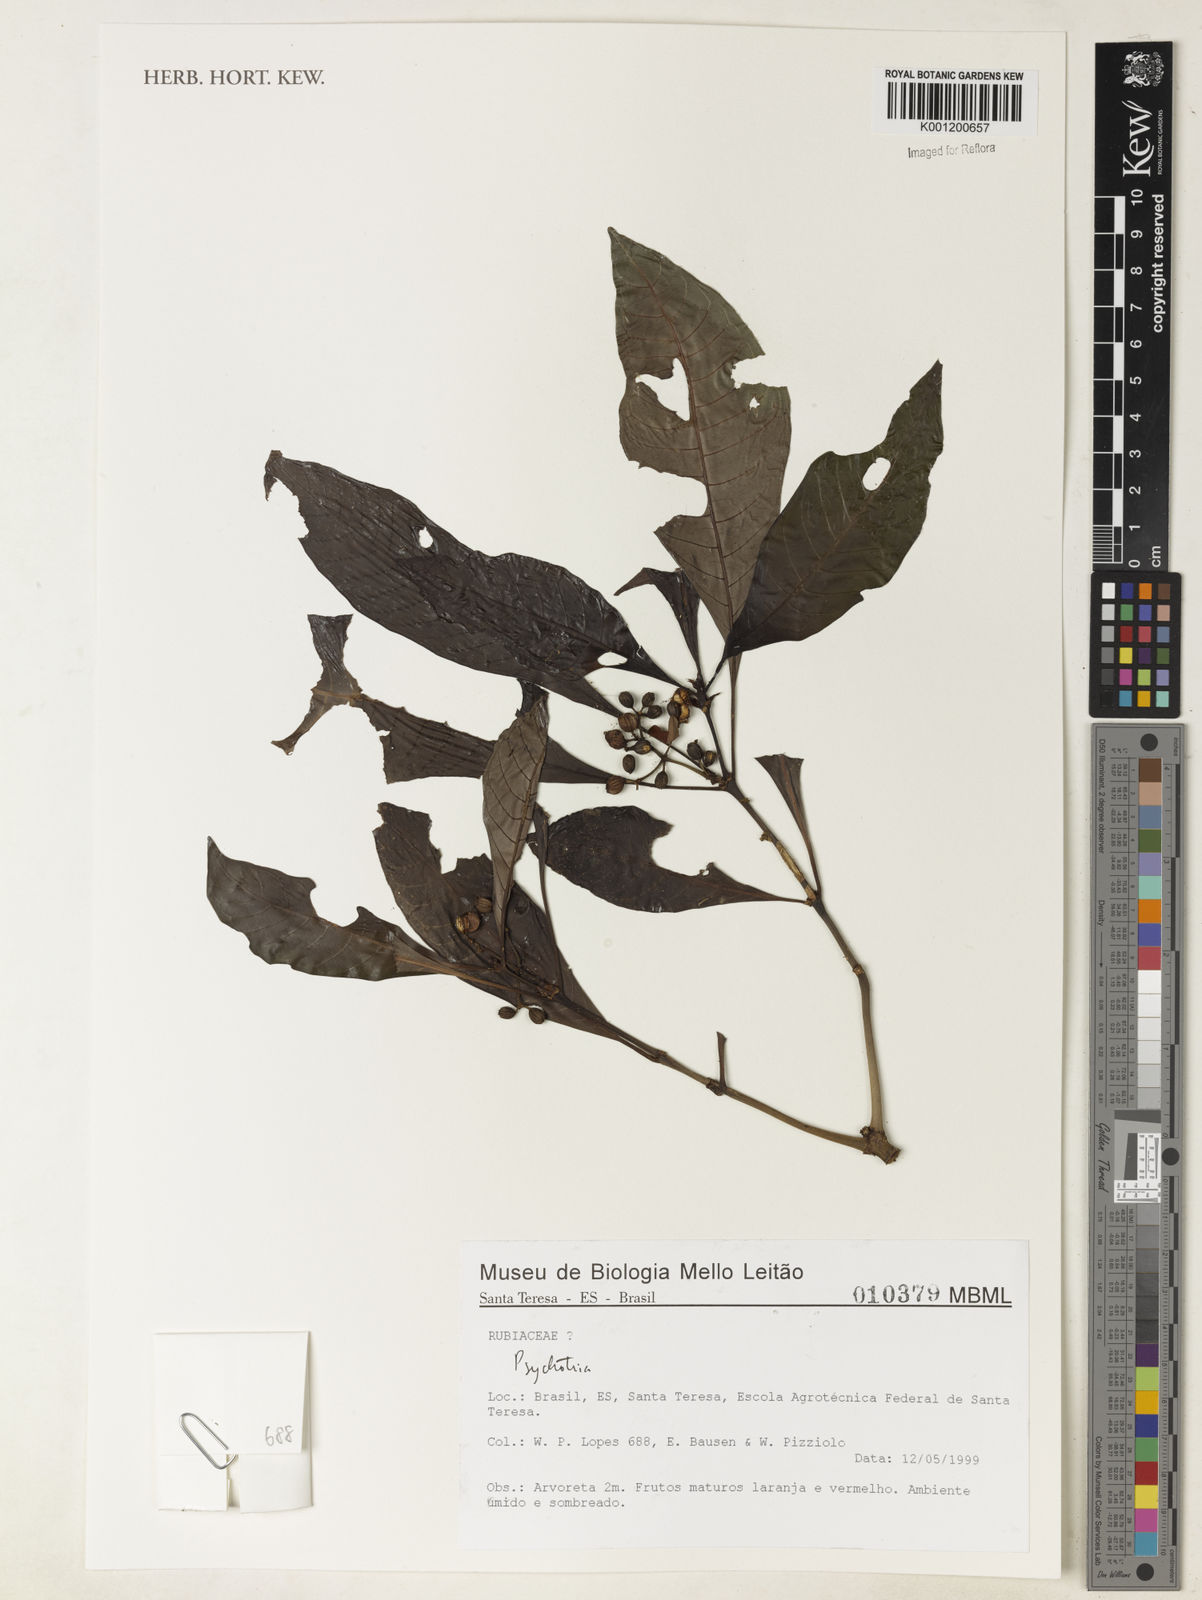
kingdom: Plantae
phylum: Tracheophyta
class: Magnoliopsida
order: Gentianales
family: Rubiaceae
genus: Psychotria
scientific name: Psychotria
